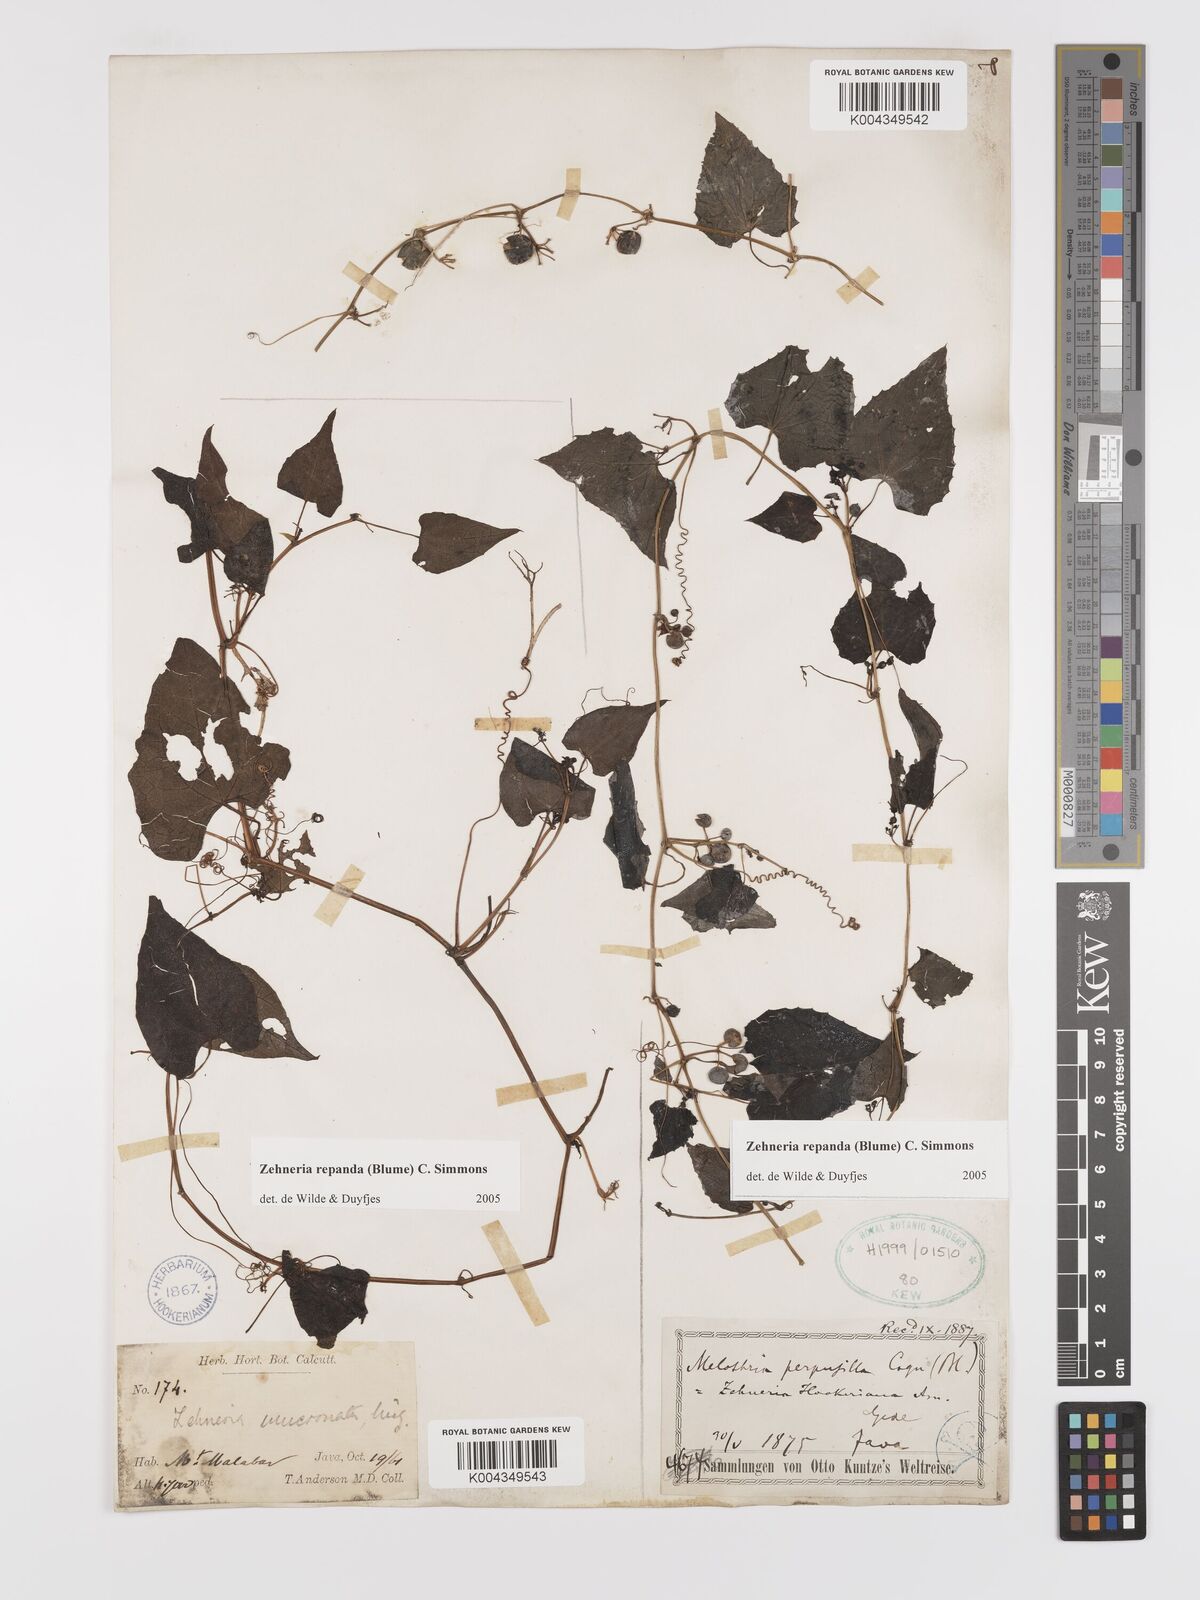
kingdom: Plantae
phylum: Tracheophyta
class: Magnoliopsida
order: Cucurbitales
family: Cucurbitaceae
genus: Zehneria
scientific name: Zehneria repanda
